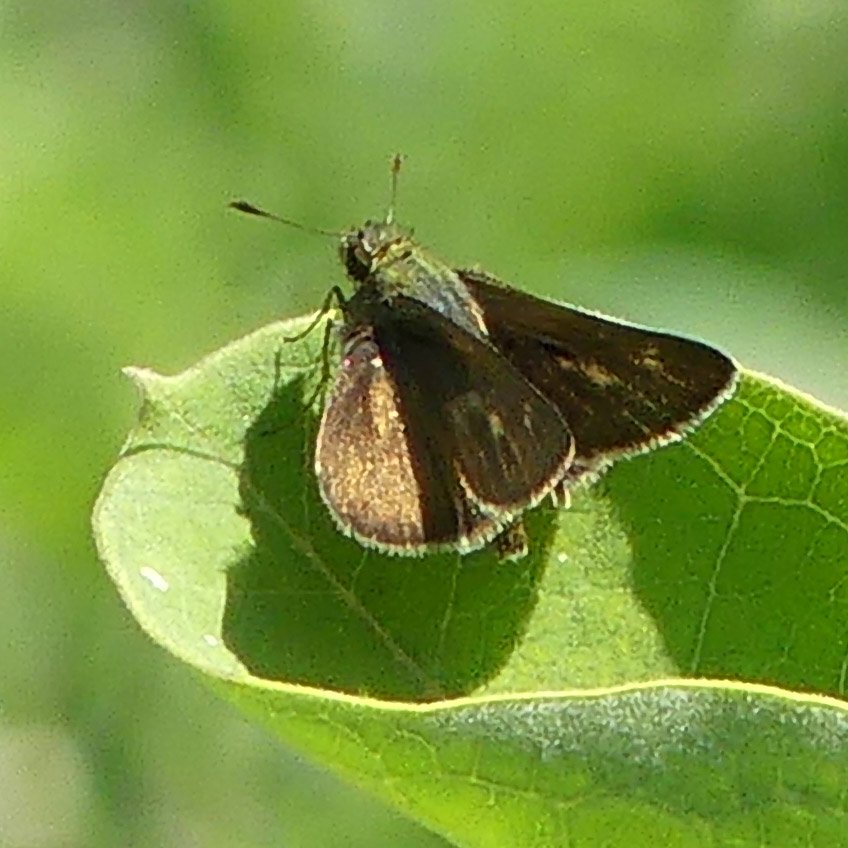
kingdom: Animalia
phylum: Arthropoda
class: Insecta
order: Lepidoptera
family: Hesperiidae
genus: Euphyes
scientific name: Euphyes vestris
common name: Dun Skipper
